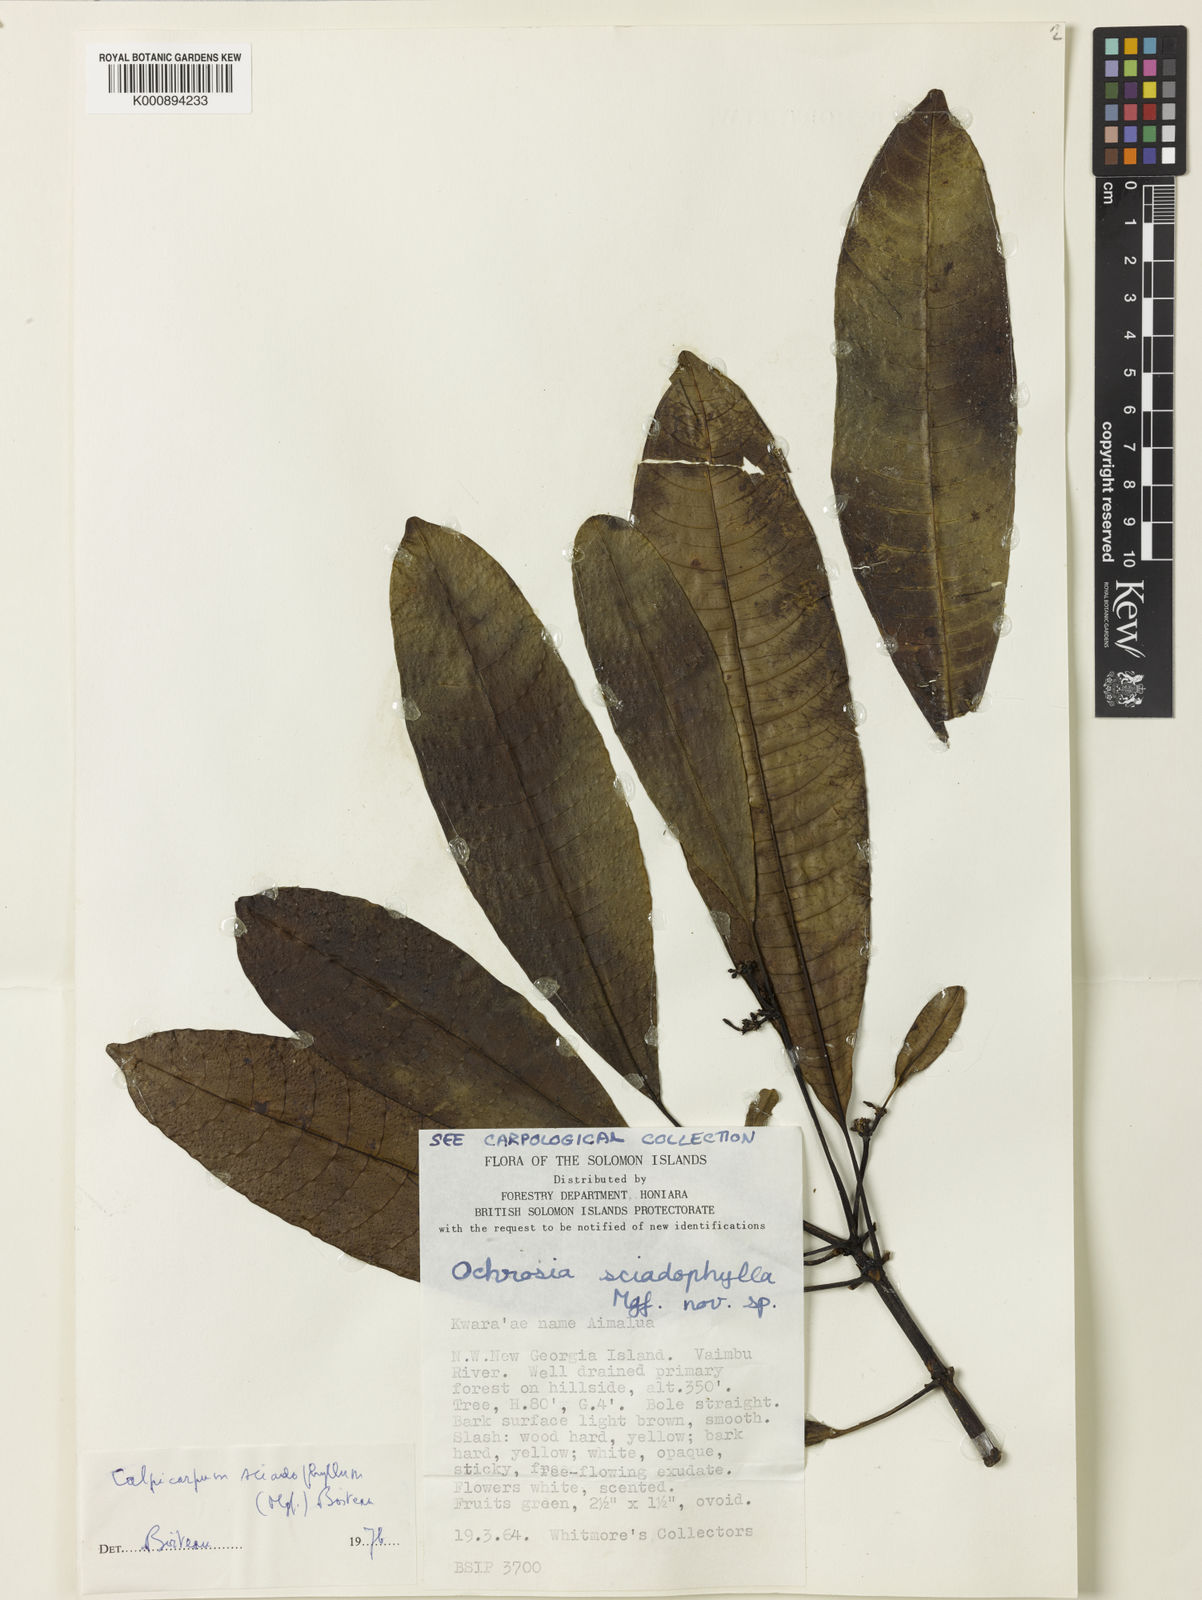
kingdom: Plantae
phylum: Tracheophyta
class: Magnoliopsida
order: Gentianales
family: Apocynaceae
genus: Ochrosia
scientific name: Ochrosia sciadophylla
